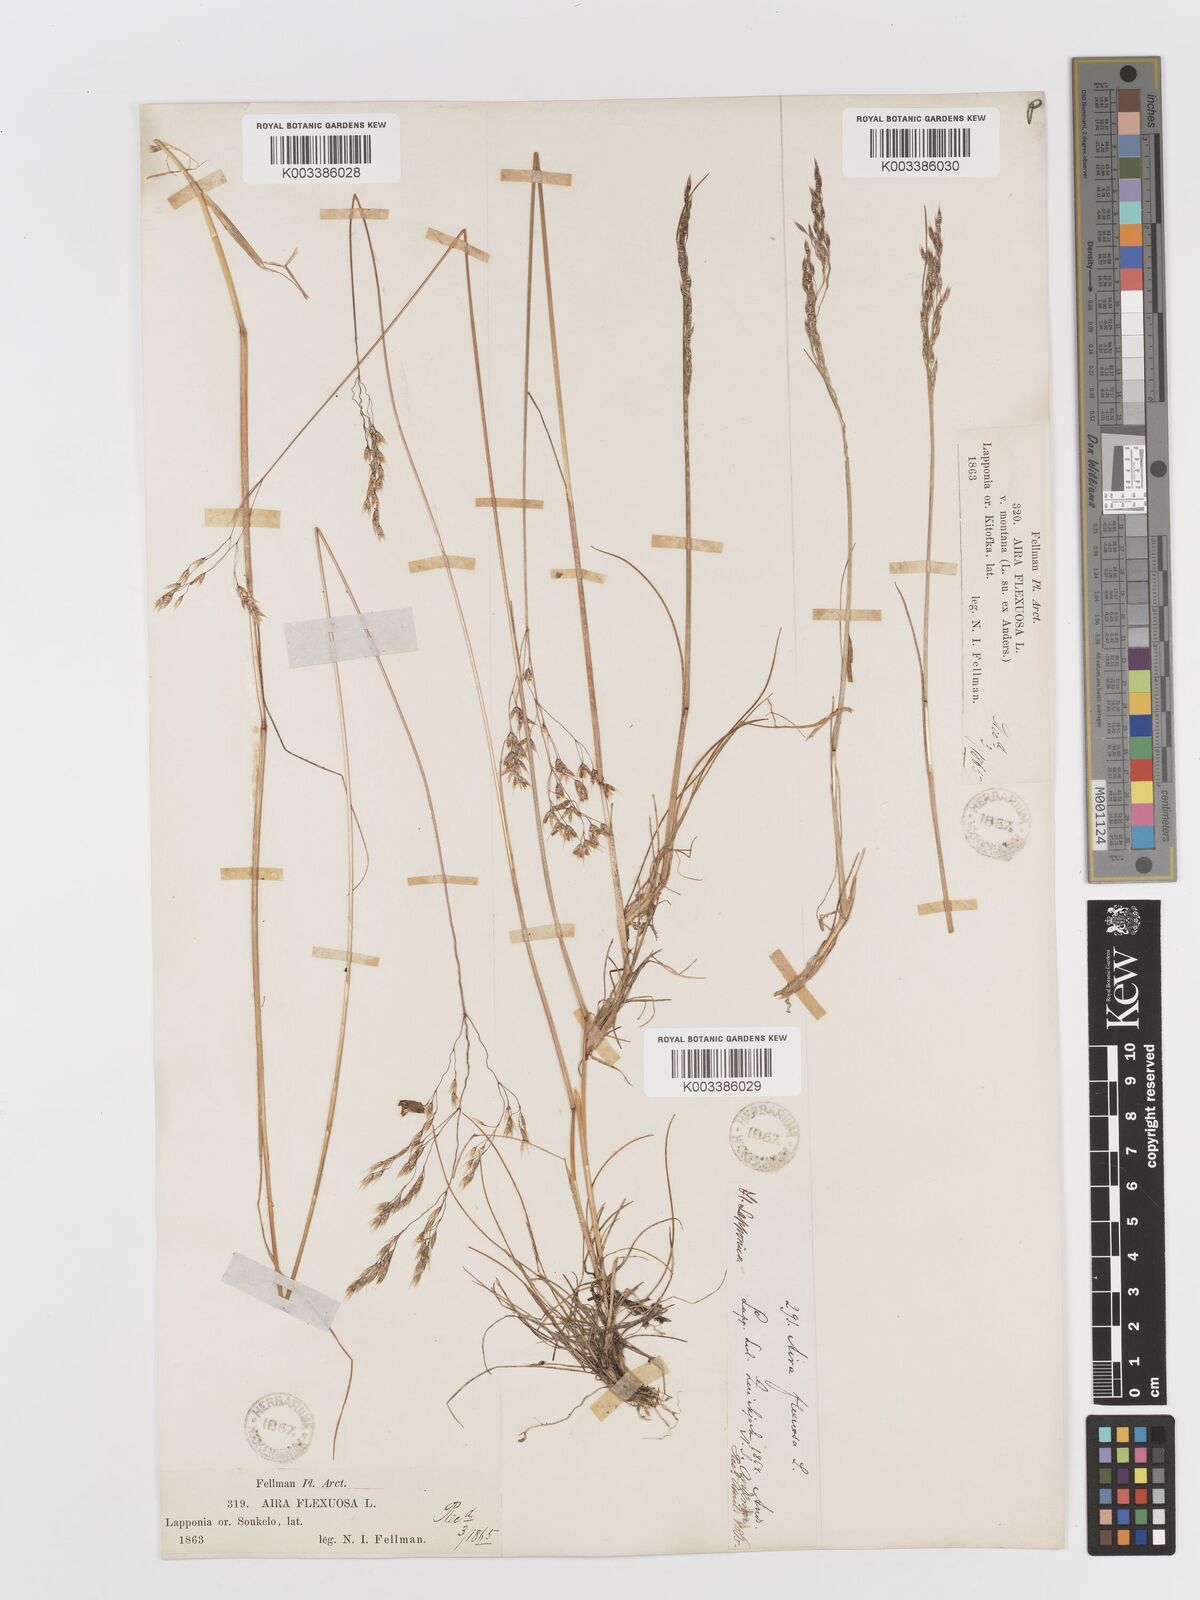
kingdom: Plantae
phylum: Tracheophyta
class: Liliopsida
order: Poales
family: Poaceae
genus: Avenella
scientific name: Avenella flexuosa
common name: Wavy hairgrass
